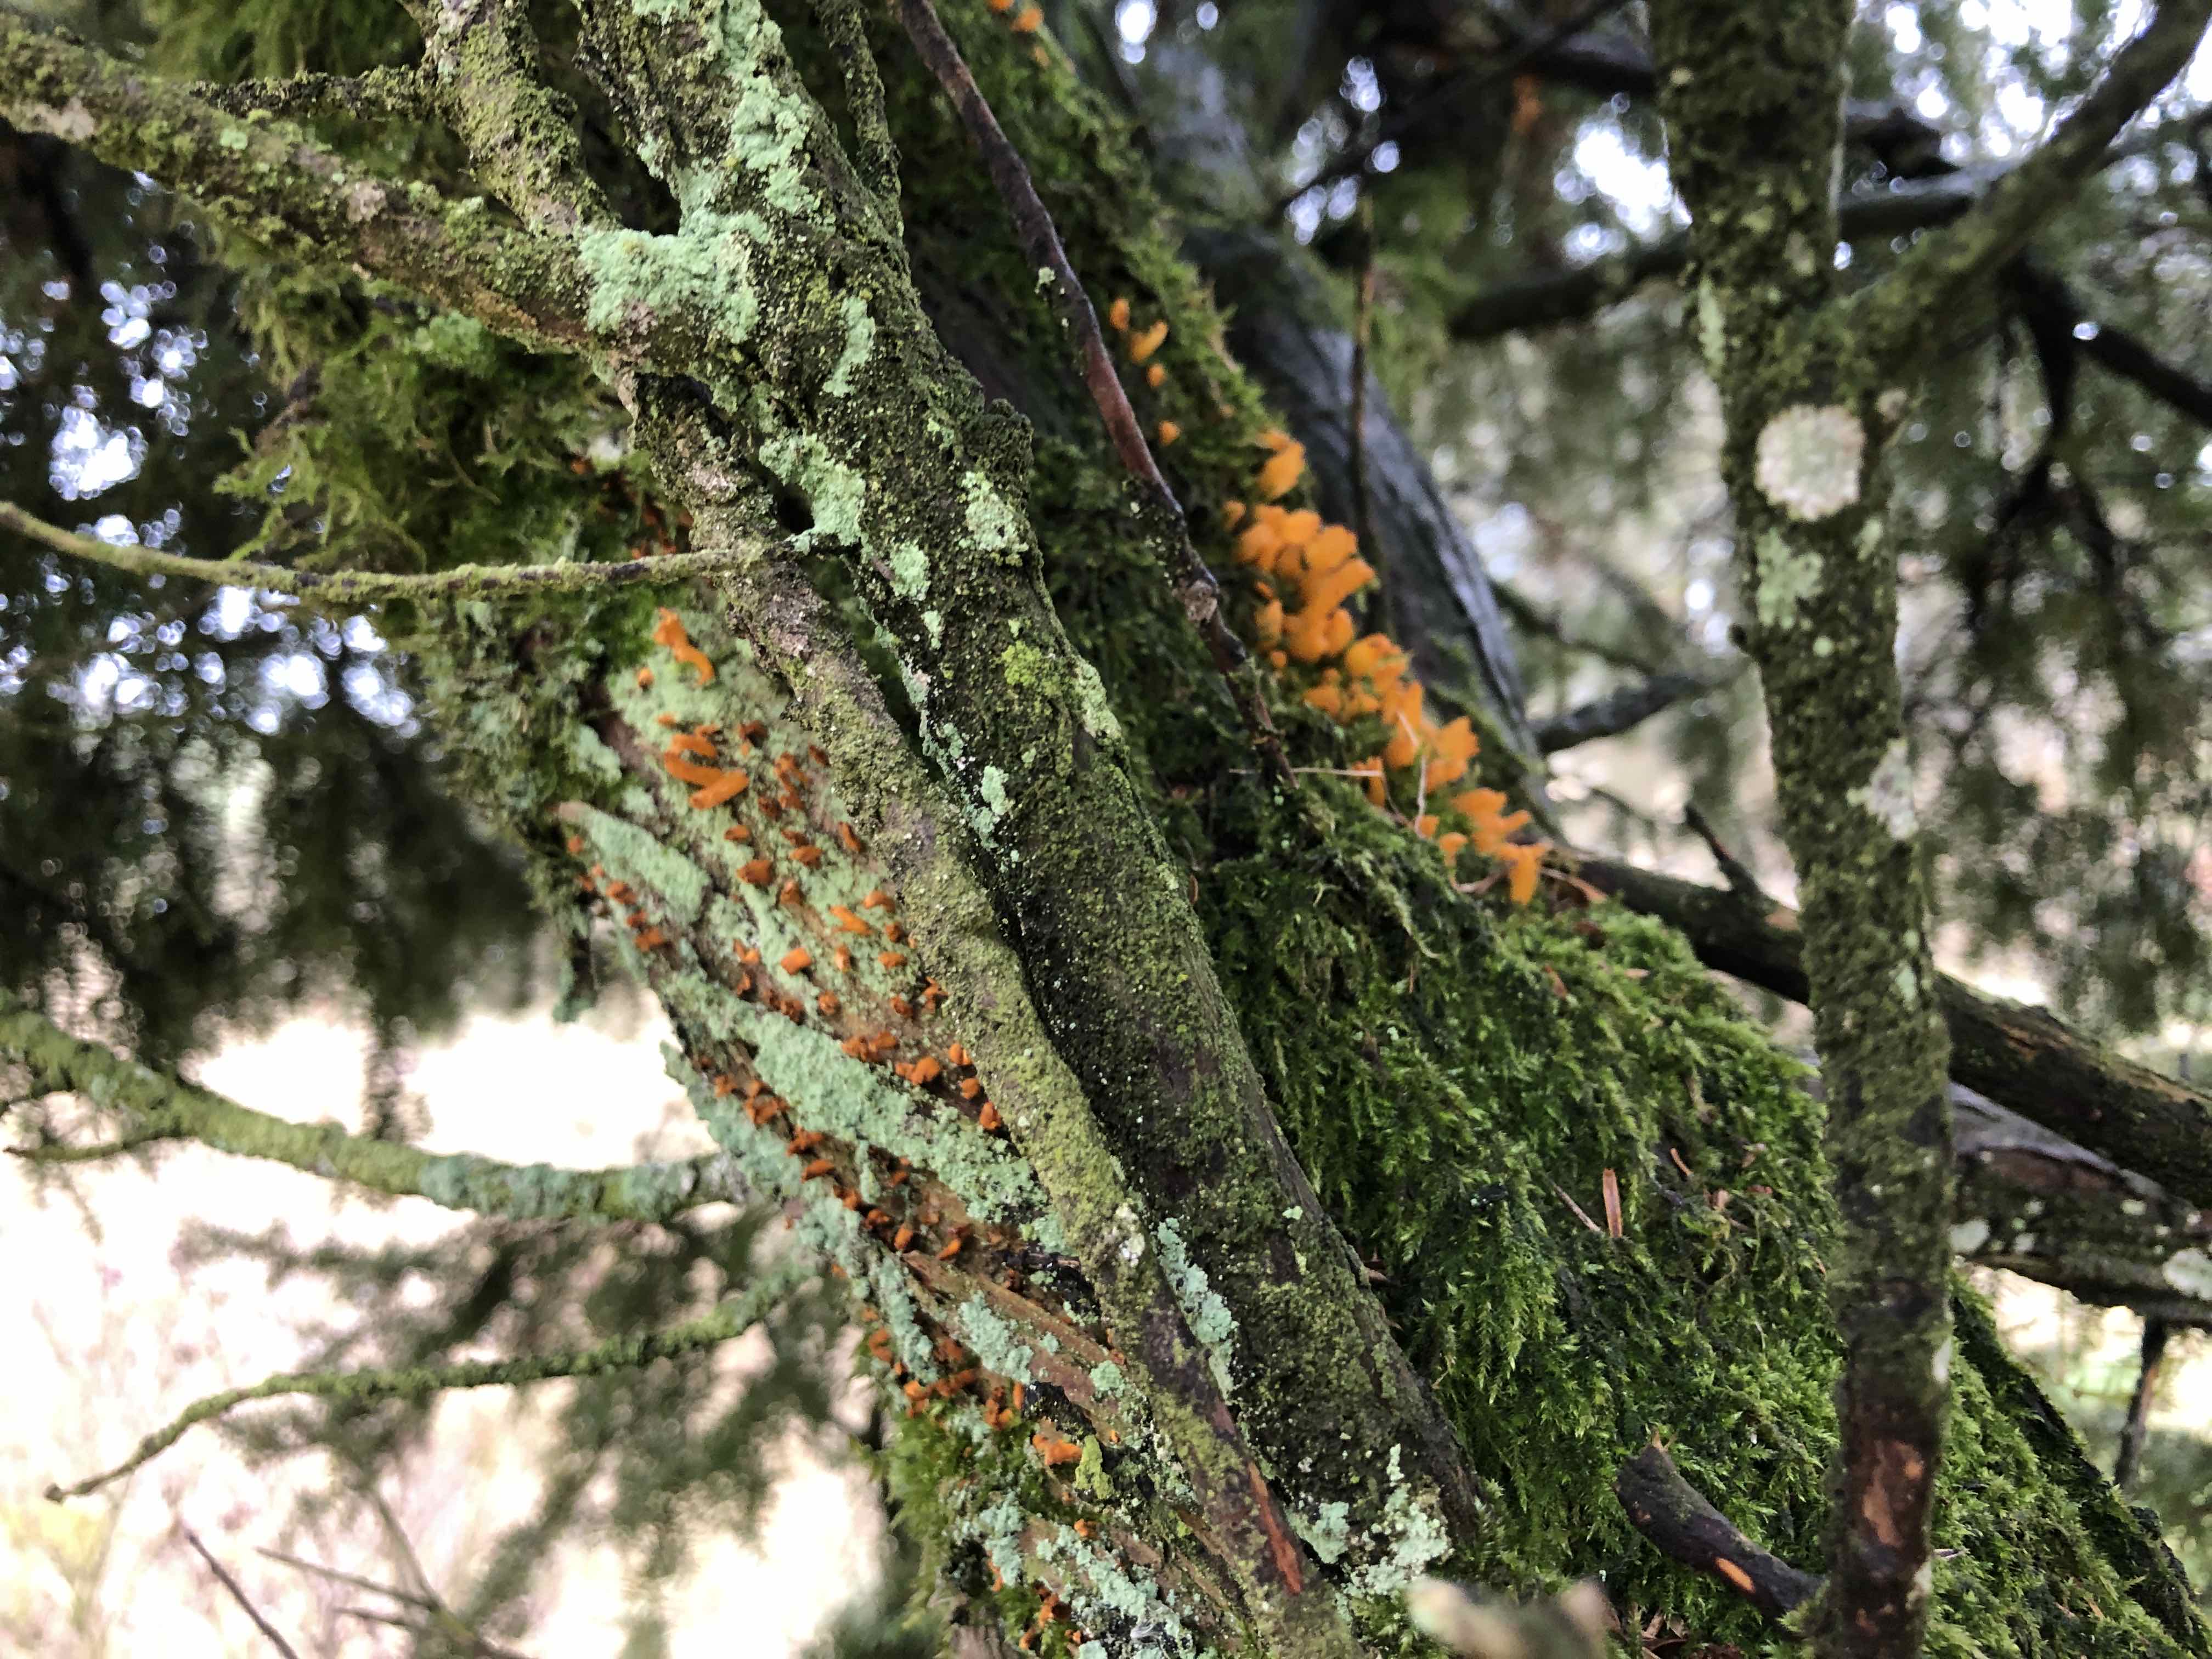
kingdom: Fungi
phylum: Basidiomycota
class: Pucciniomycetes
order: Pucciniales
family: Gymnosporangiaceae
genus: Gymnosporangium
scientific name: Gymnosporangium clavariiforme
